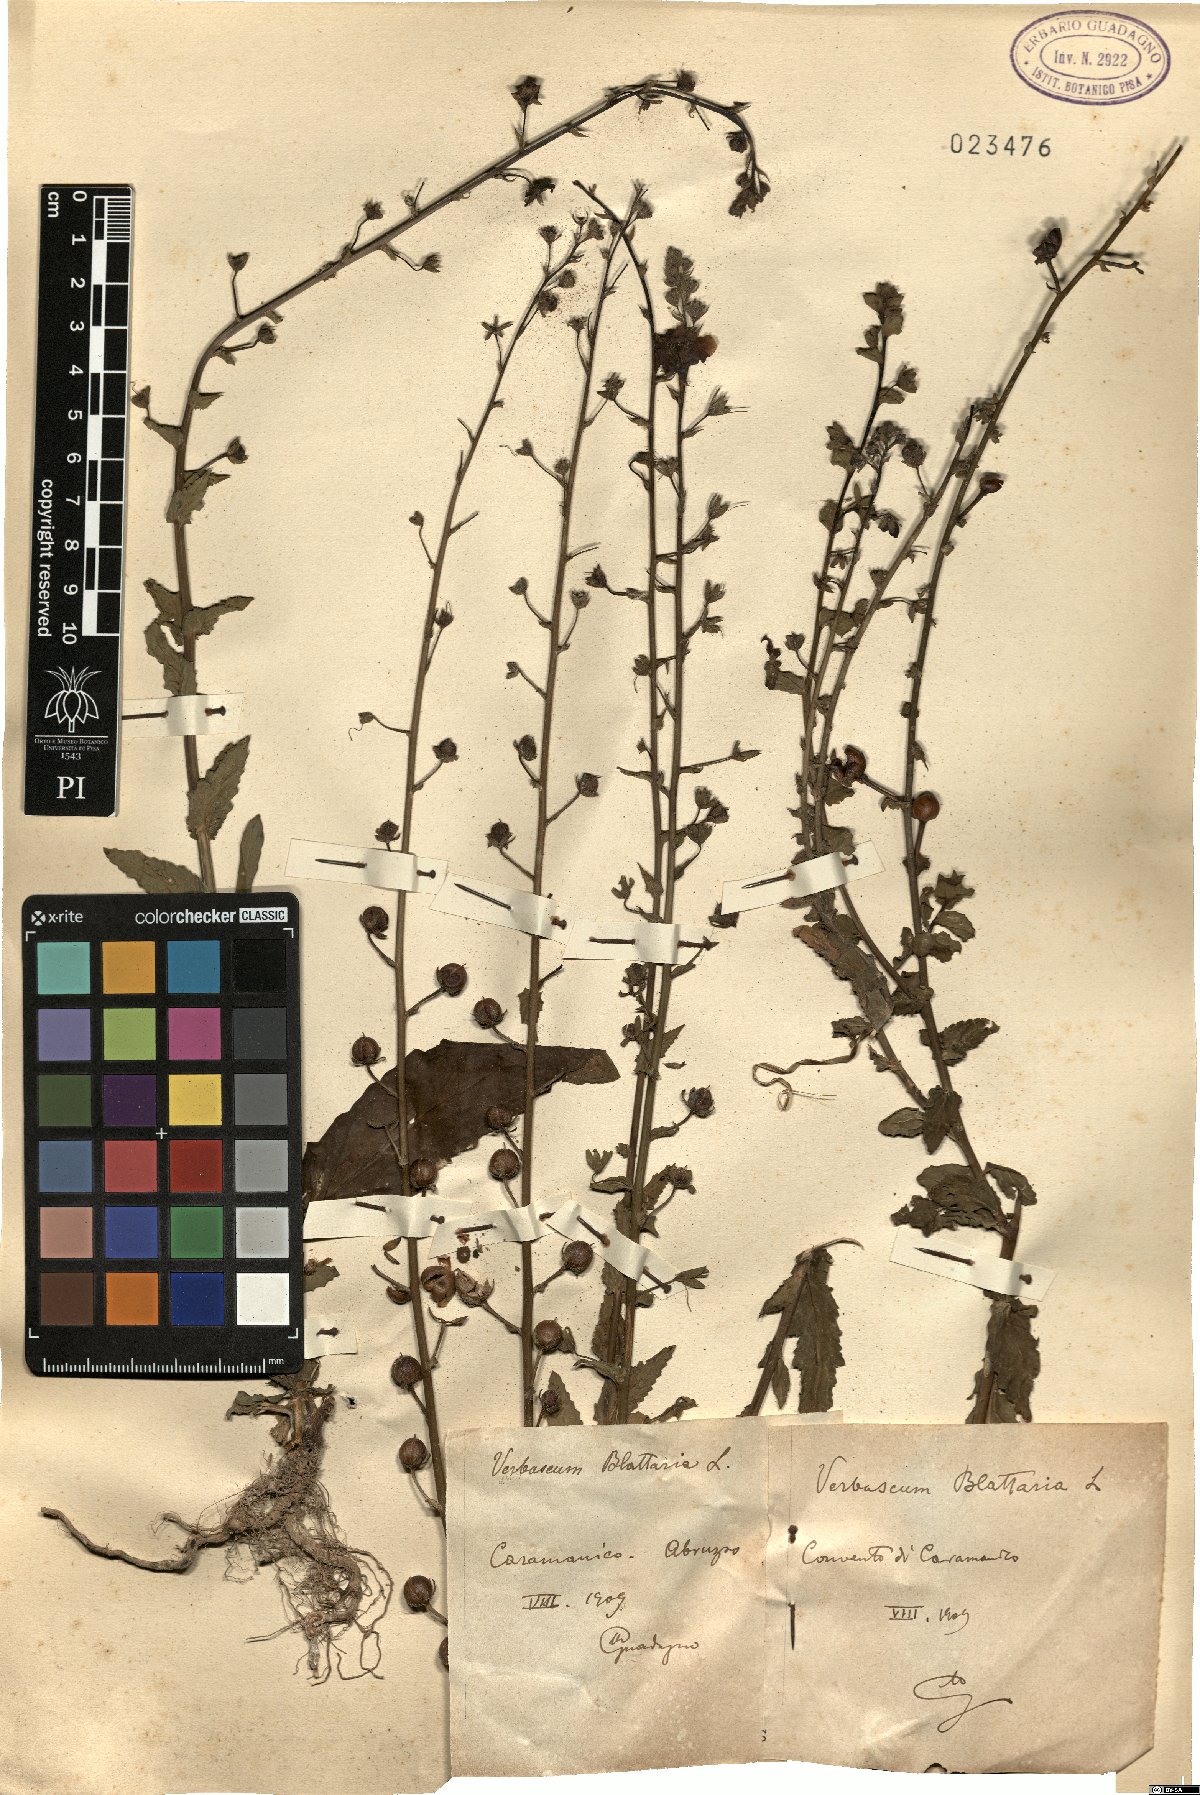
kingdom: Plantae
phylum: Tracheophyta
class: Magnoliopsida
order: Lamiales
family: Scrophulariaceae
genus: Verbascum
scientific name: Verbascum blattaria
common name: Moth mullein
